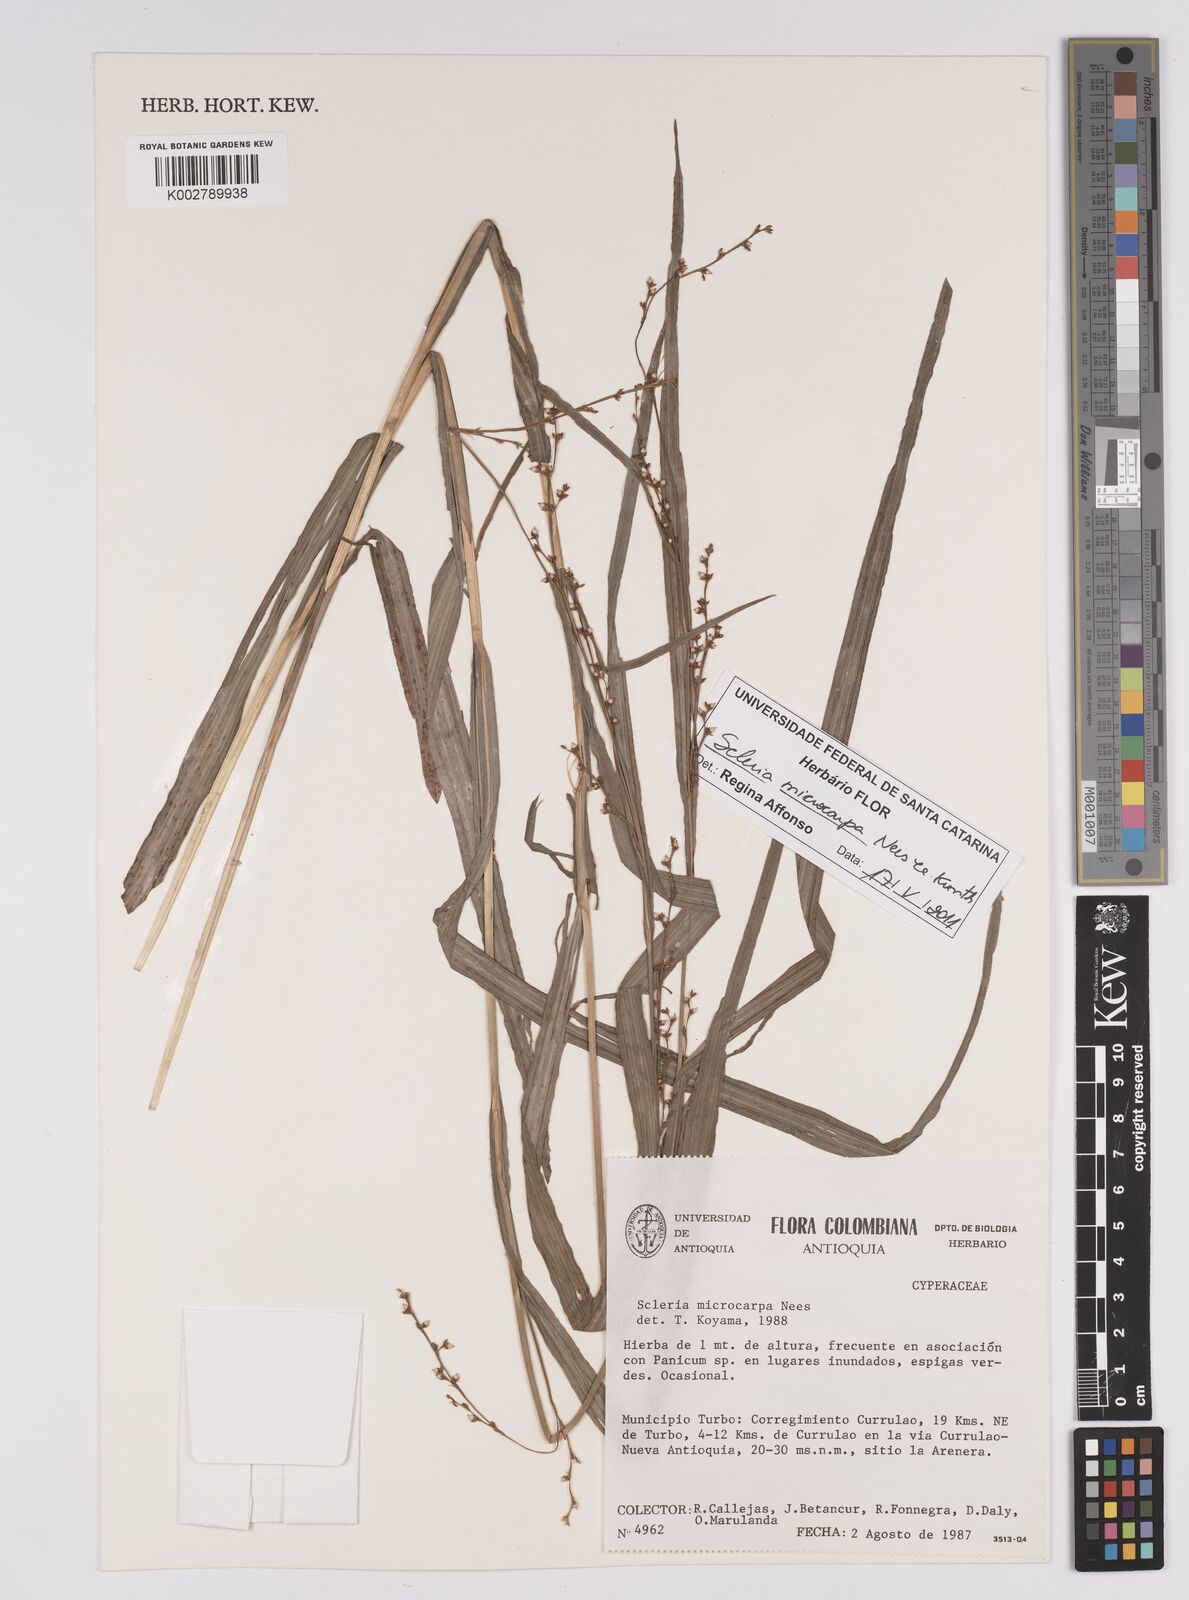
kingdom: Plantae
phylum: Tracheophyta
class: Liliopsida
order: Poales
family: Cyperaceae
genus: Scleria
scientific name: Scleria microcarpa
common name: Tropical nutrush
